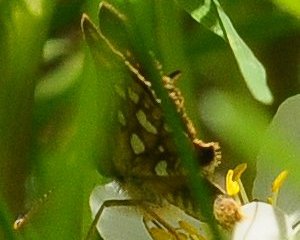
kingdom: Animalia
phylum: Arthropoda
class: Insecta
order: Lepidoptera
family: Hesperiidae
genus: Carterocephalus
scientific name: Carterocephalus mandan
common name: Arctic Skipperling
